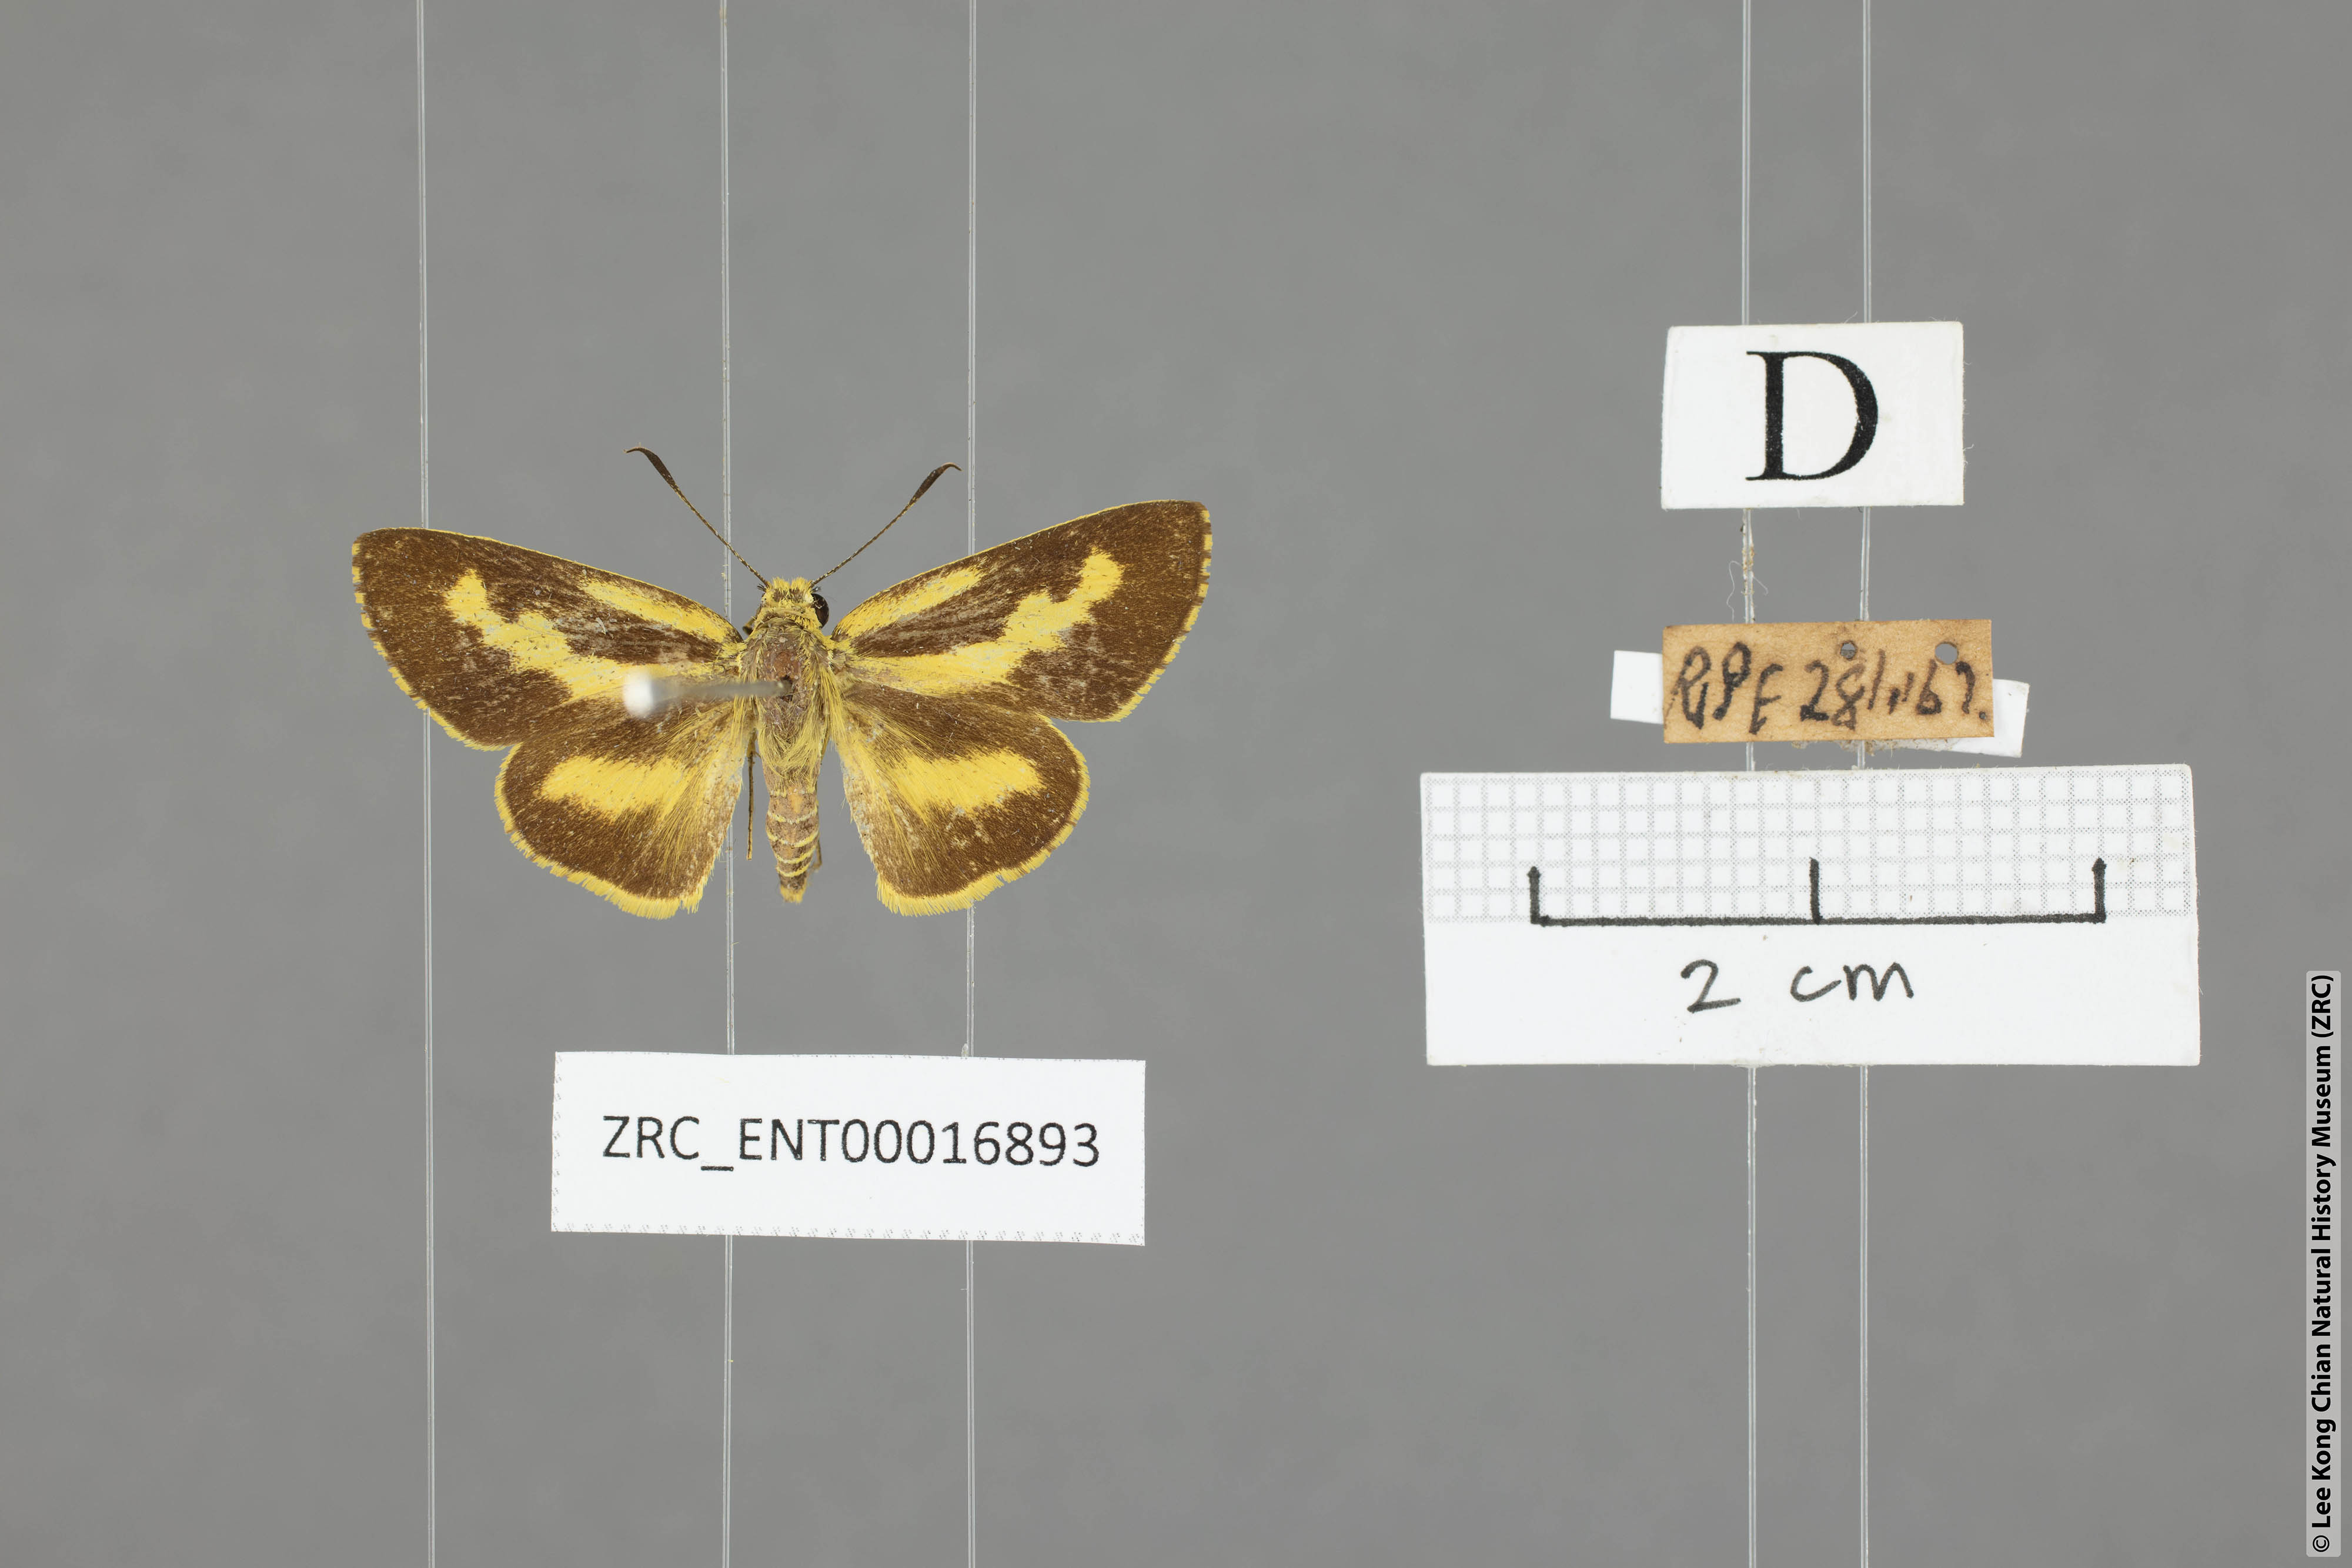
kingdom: Animalia
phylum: Arthropoda
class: Insecta
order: Lepidoptera
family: Hesperiidae
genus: Cupitha
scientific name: Cupitha purreea
